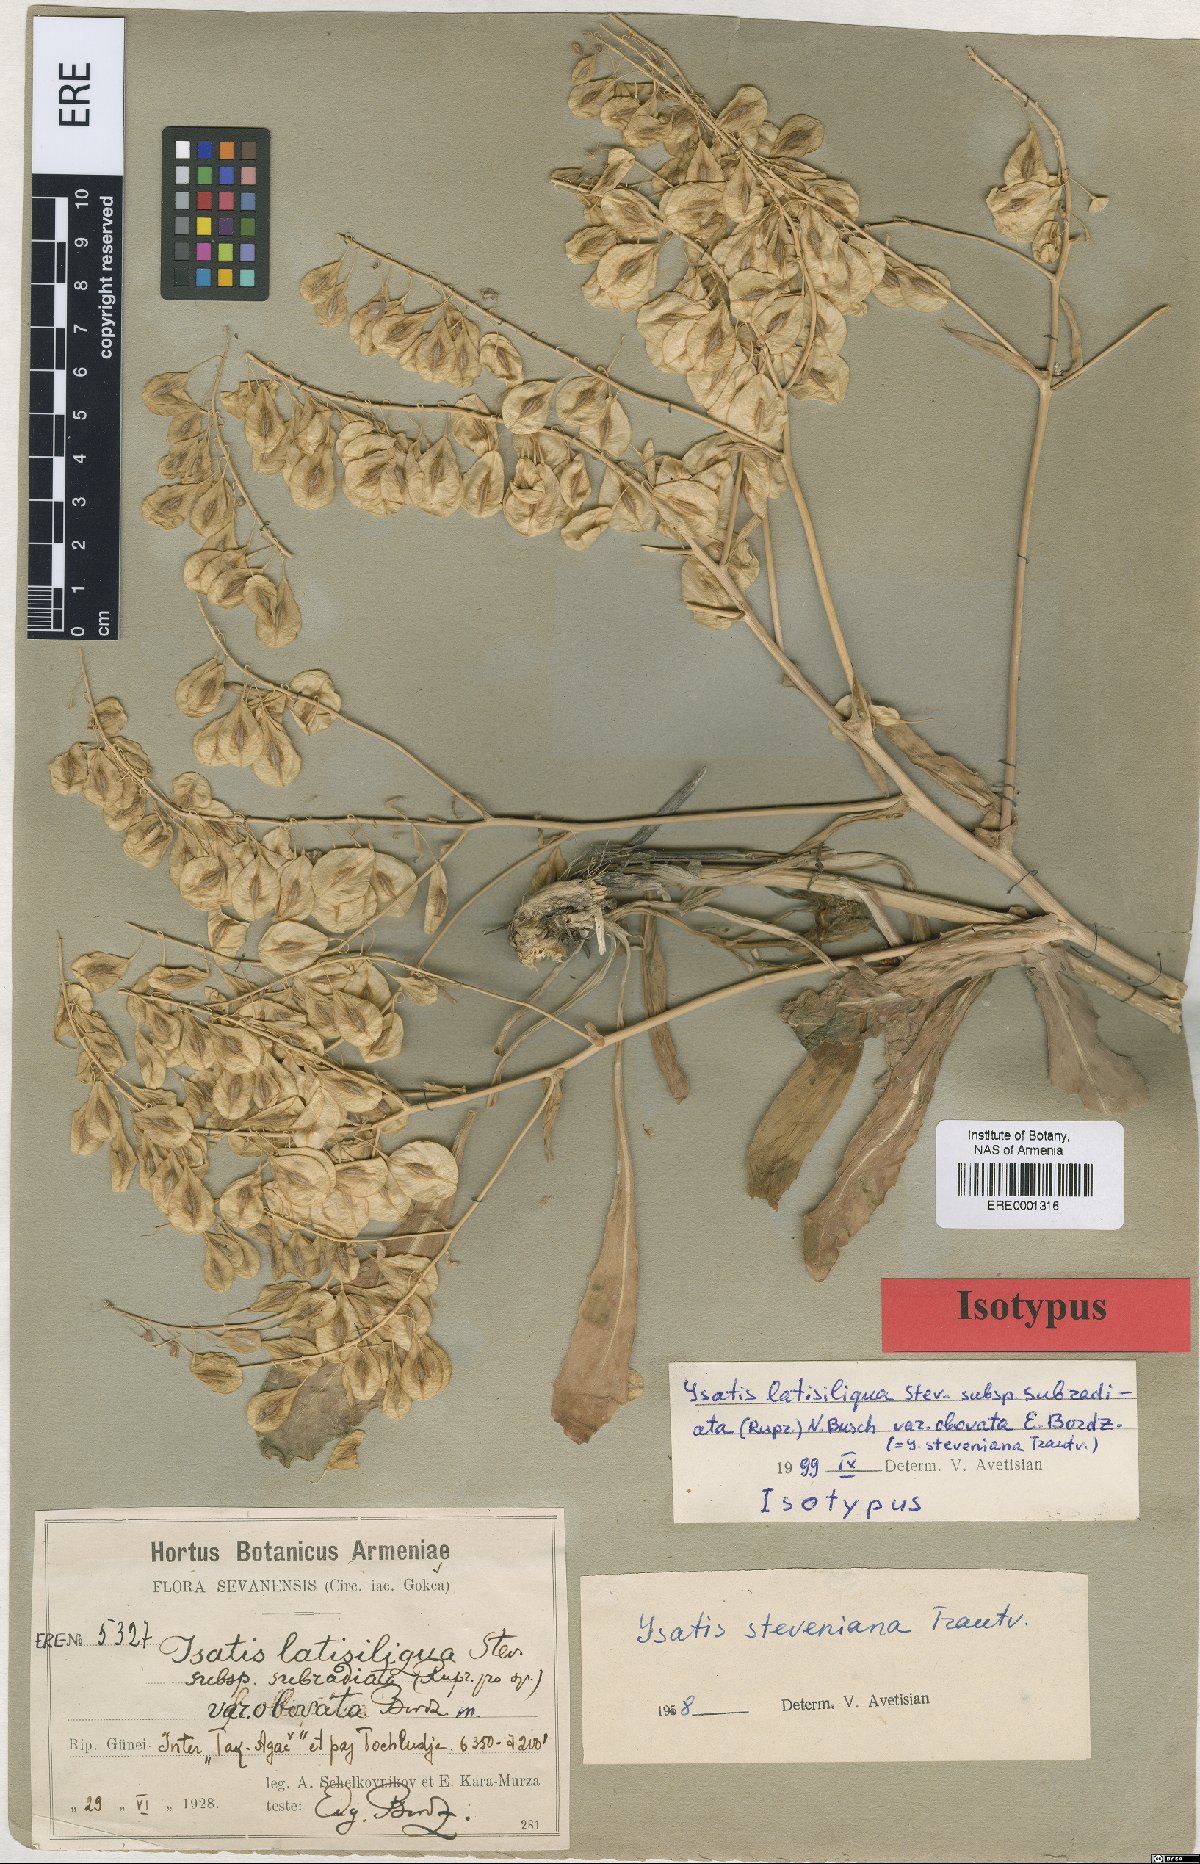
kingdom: Plantae
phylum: Tracheophyta
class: Magnoliopsida
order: Brassicales
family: Brassicaceae
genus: Isatis
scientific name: Isatis latisiliqua
